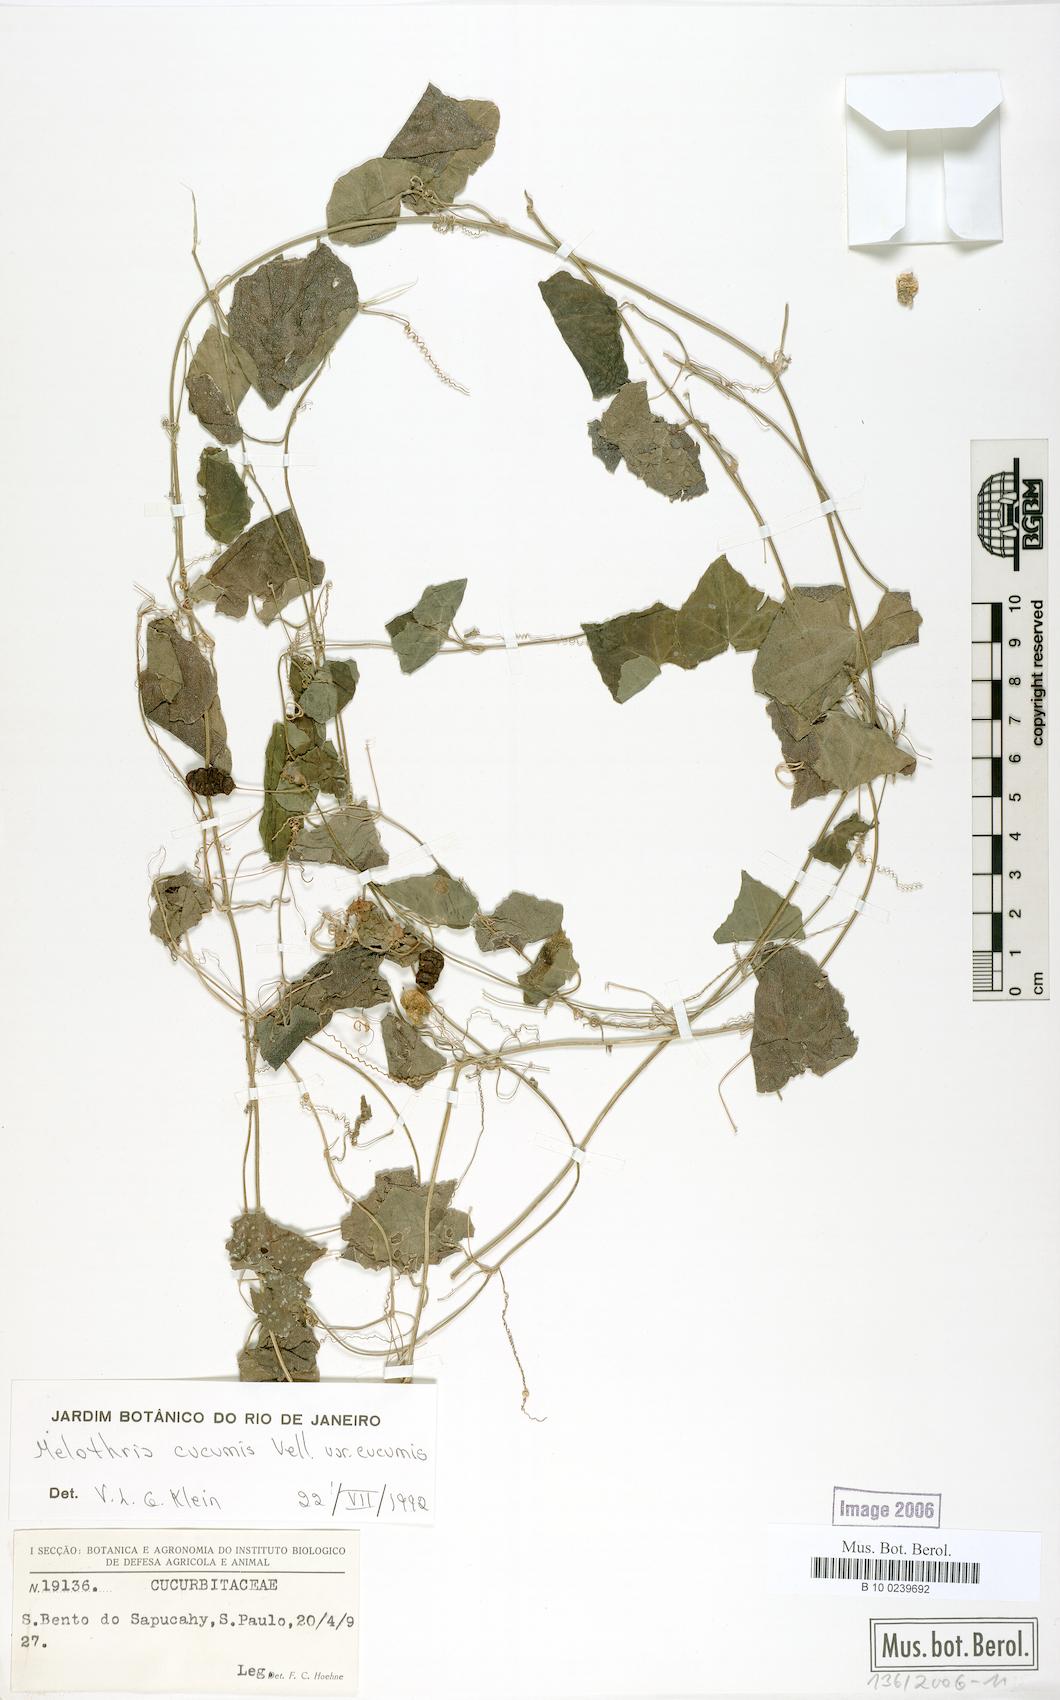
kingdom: Plantae
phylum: Tracheophyta
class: Magnoliopsida
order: Cucurbitales
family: Cucurbitaceae
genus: Melothria
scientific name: Melothria cucumis
